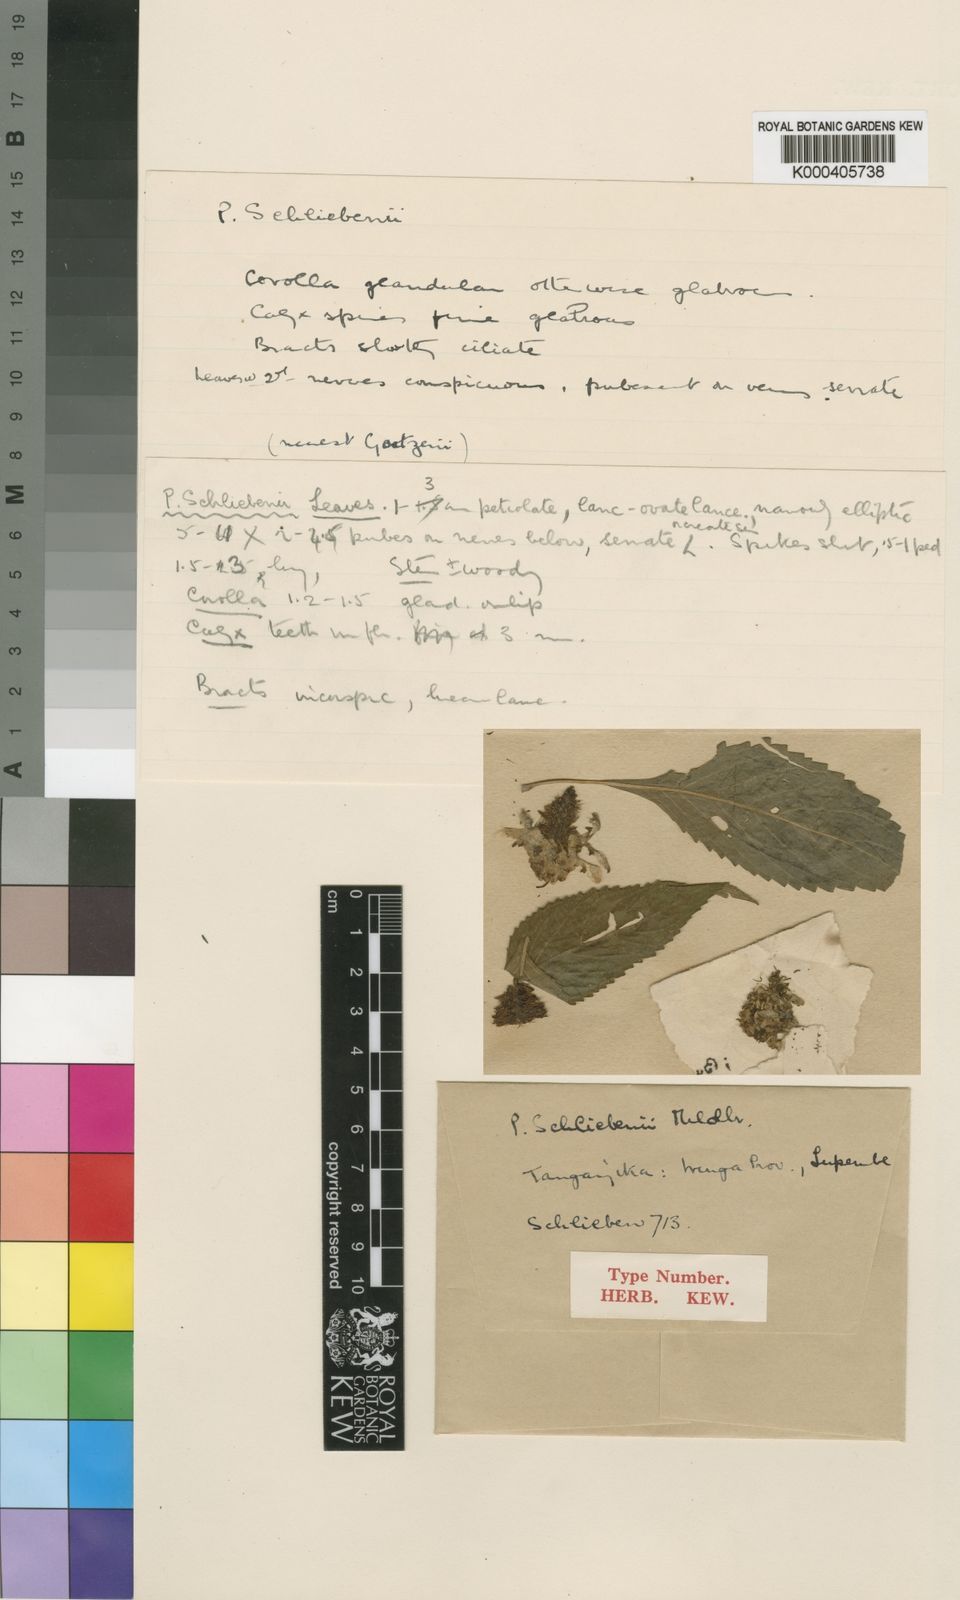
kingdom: Plantae
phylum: Tracheophyta
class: Magnoliopsida
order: Lamiales
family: Lamiaceae
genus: Coleus
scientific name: Coleus schliebenii
